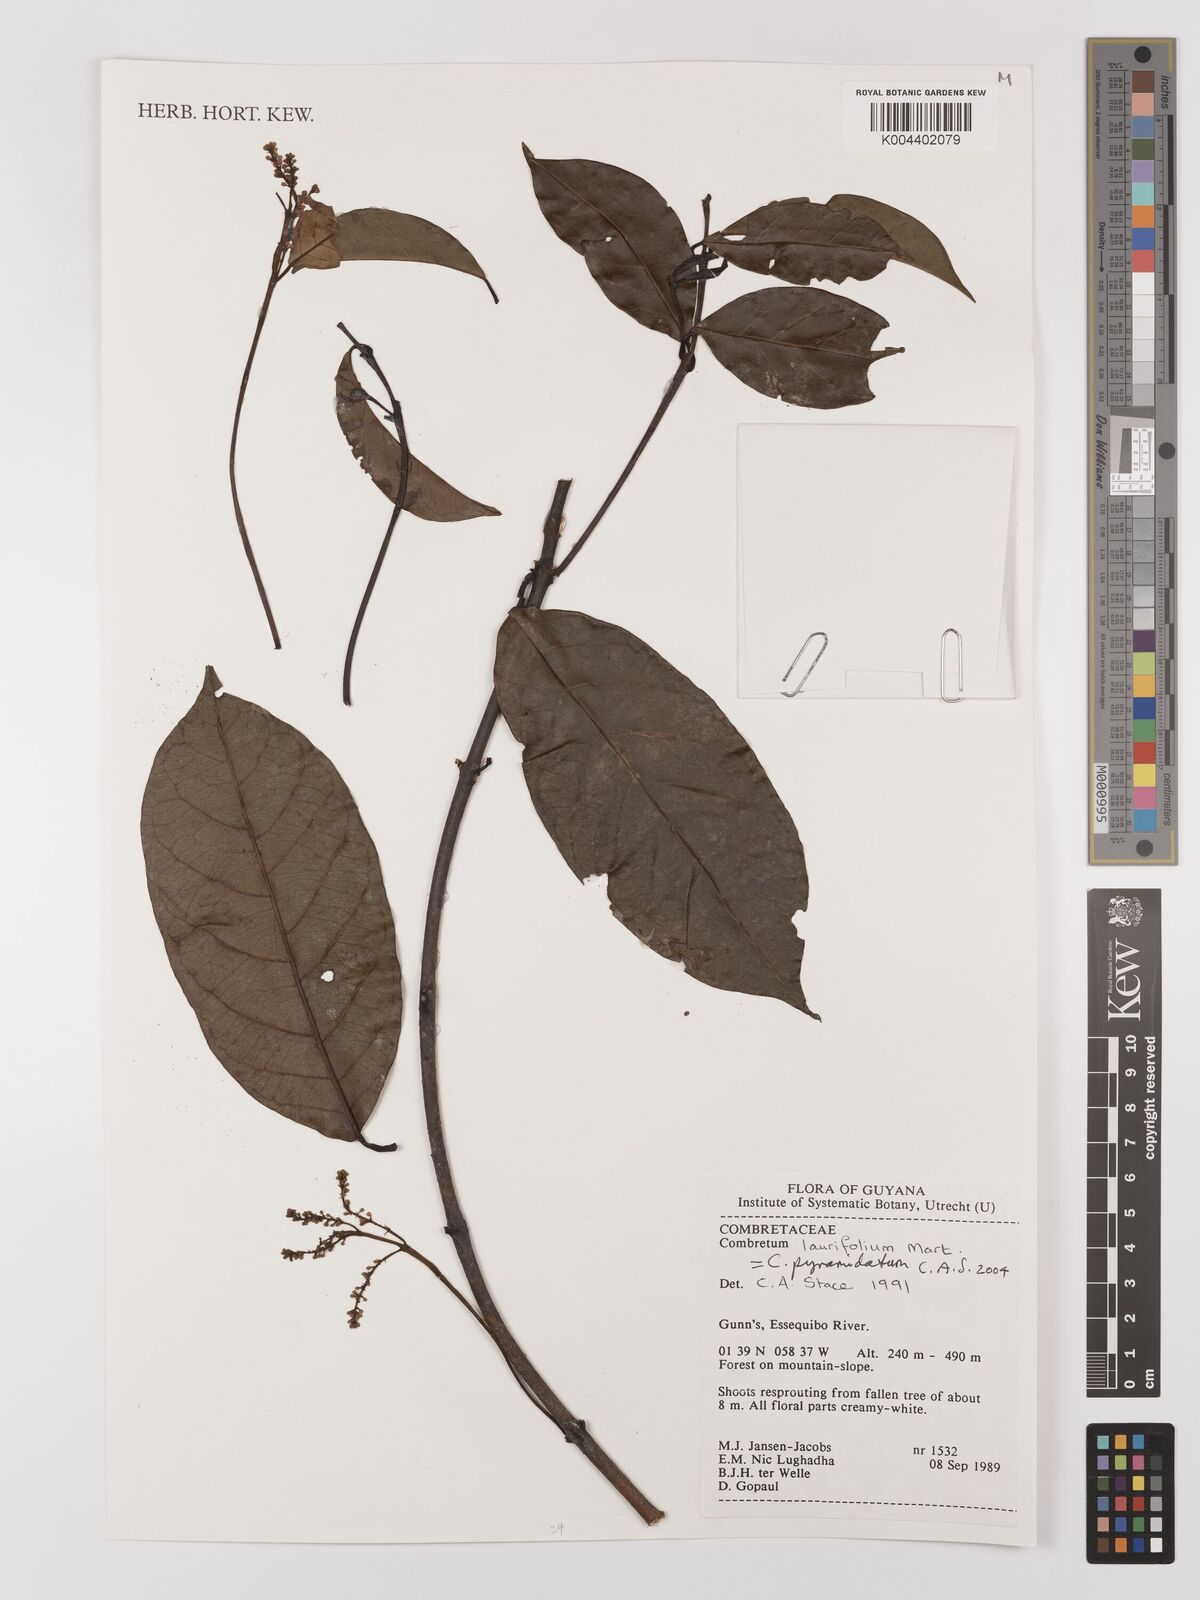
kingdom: Plantae
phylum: Tracheophyta
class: Magnoliopsida
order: Myrtales
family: Combretaceae
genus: Combretum
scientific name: Combretum
